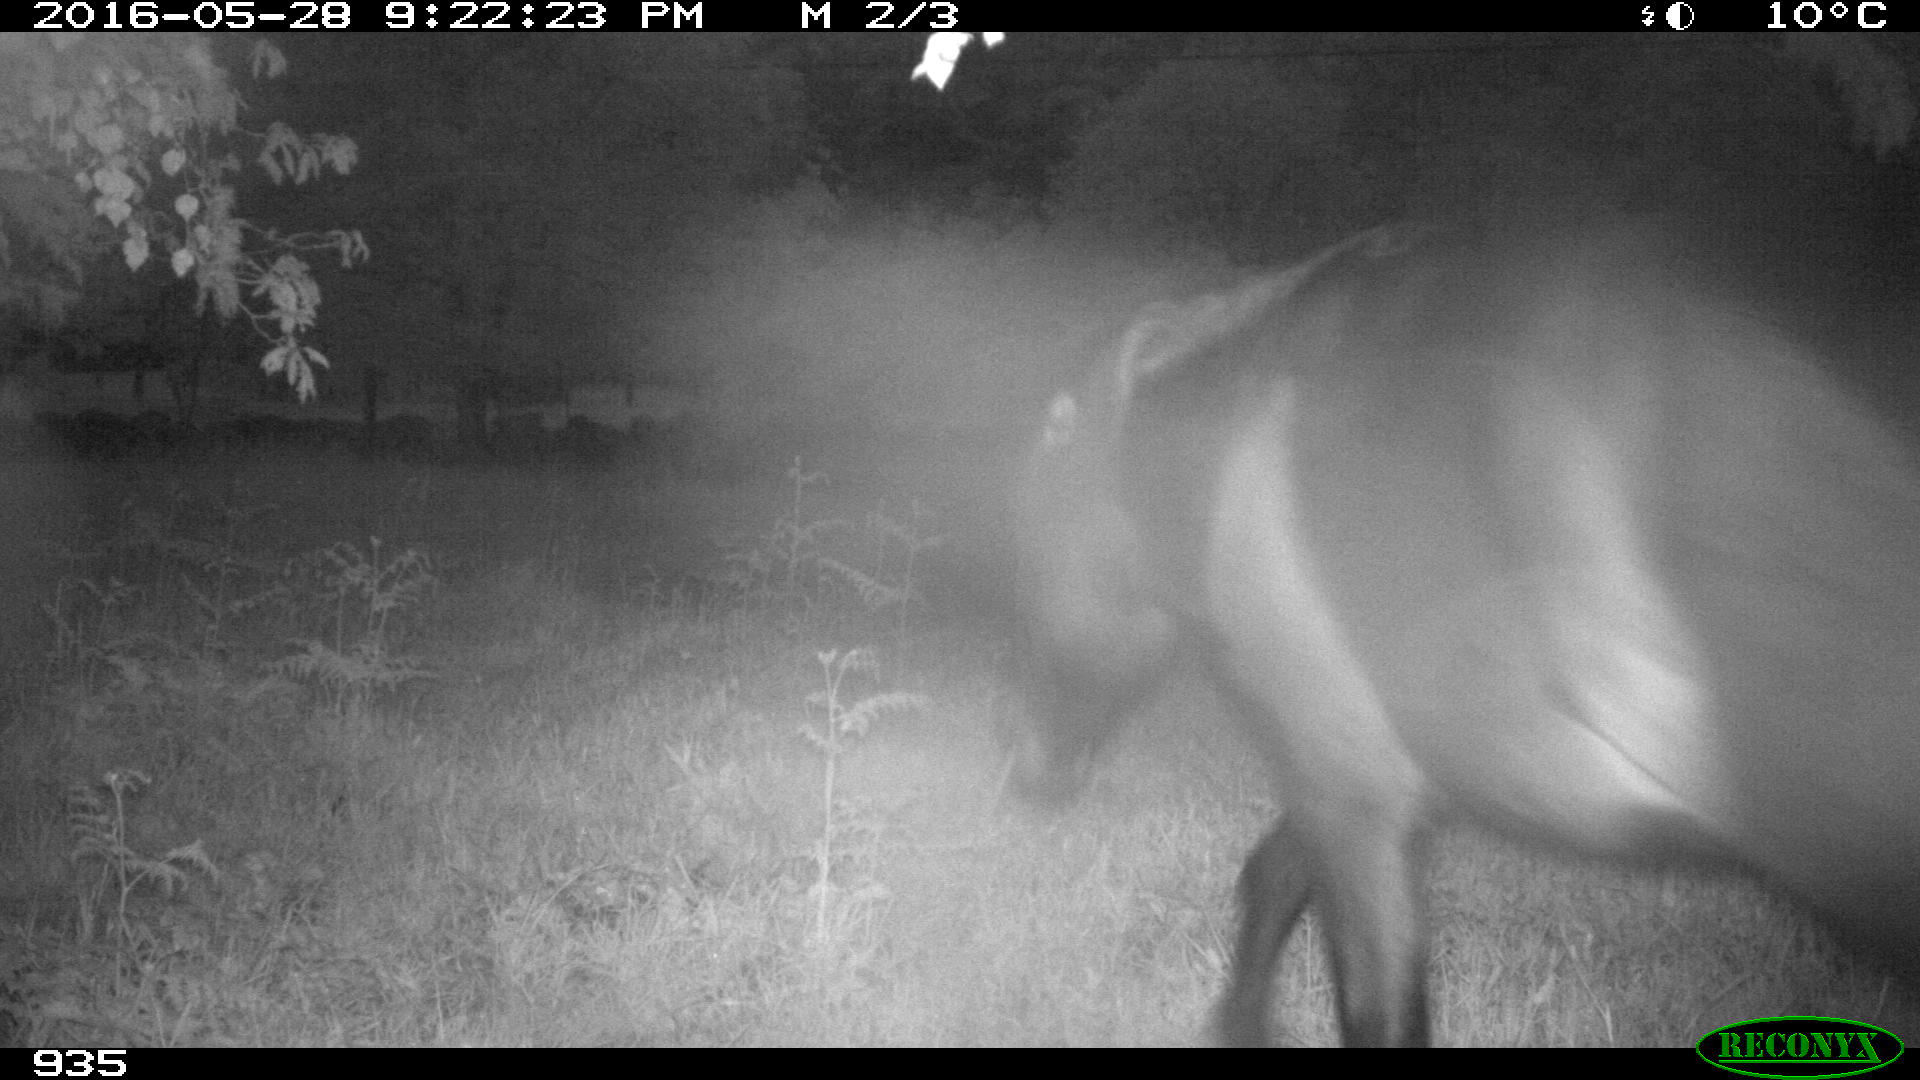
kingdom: Animalia
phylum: Chordata
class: Mammalia
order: Perissodactyla
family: Equidae
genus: Equus
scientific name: Equus caballus
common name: Horse
